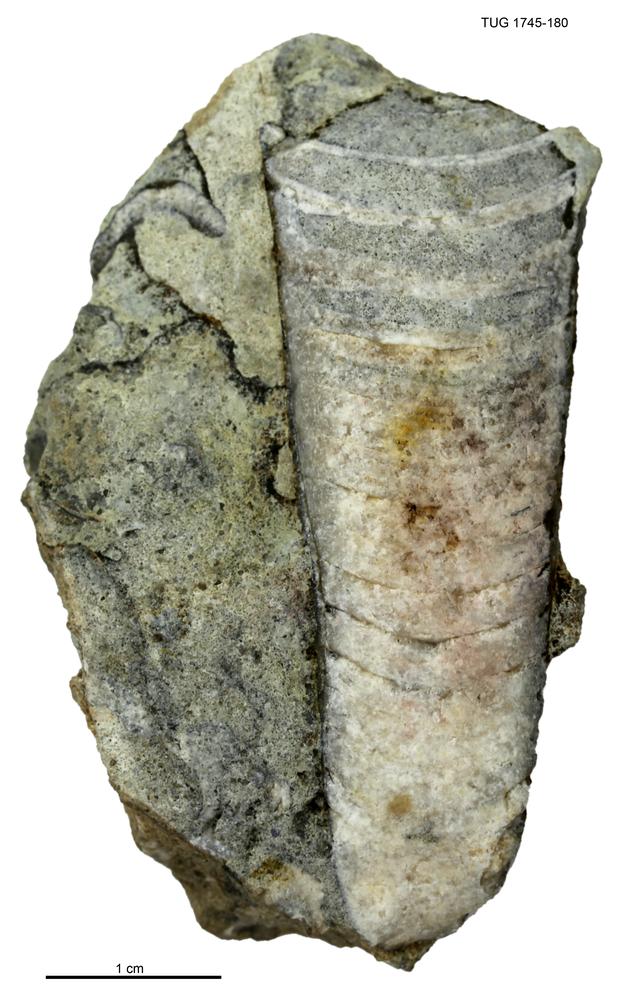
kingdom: Animalia
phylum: Mollusca
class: Cephalopoda
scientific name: Cephalopoda
